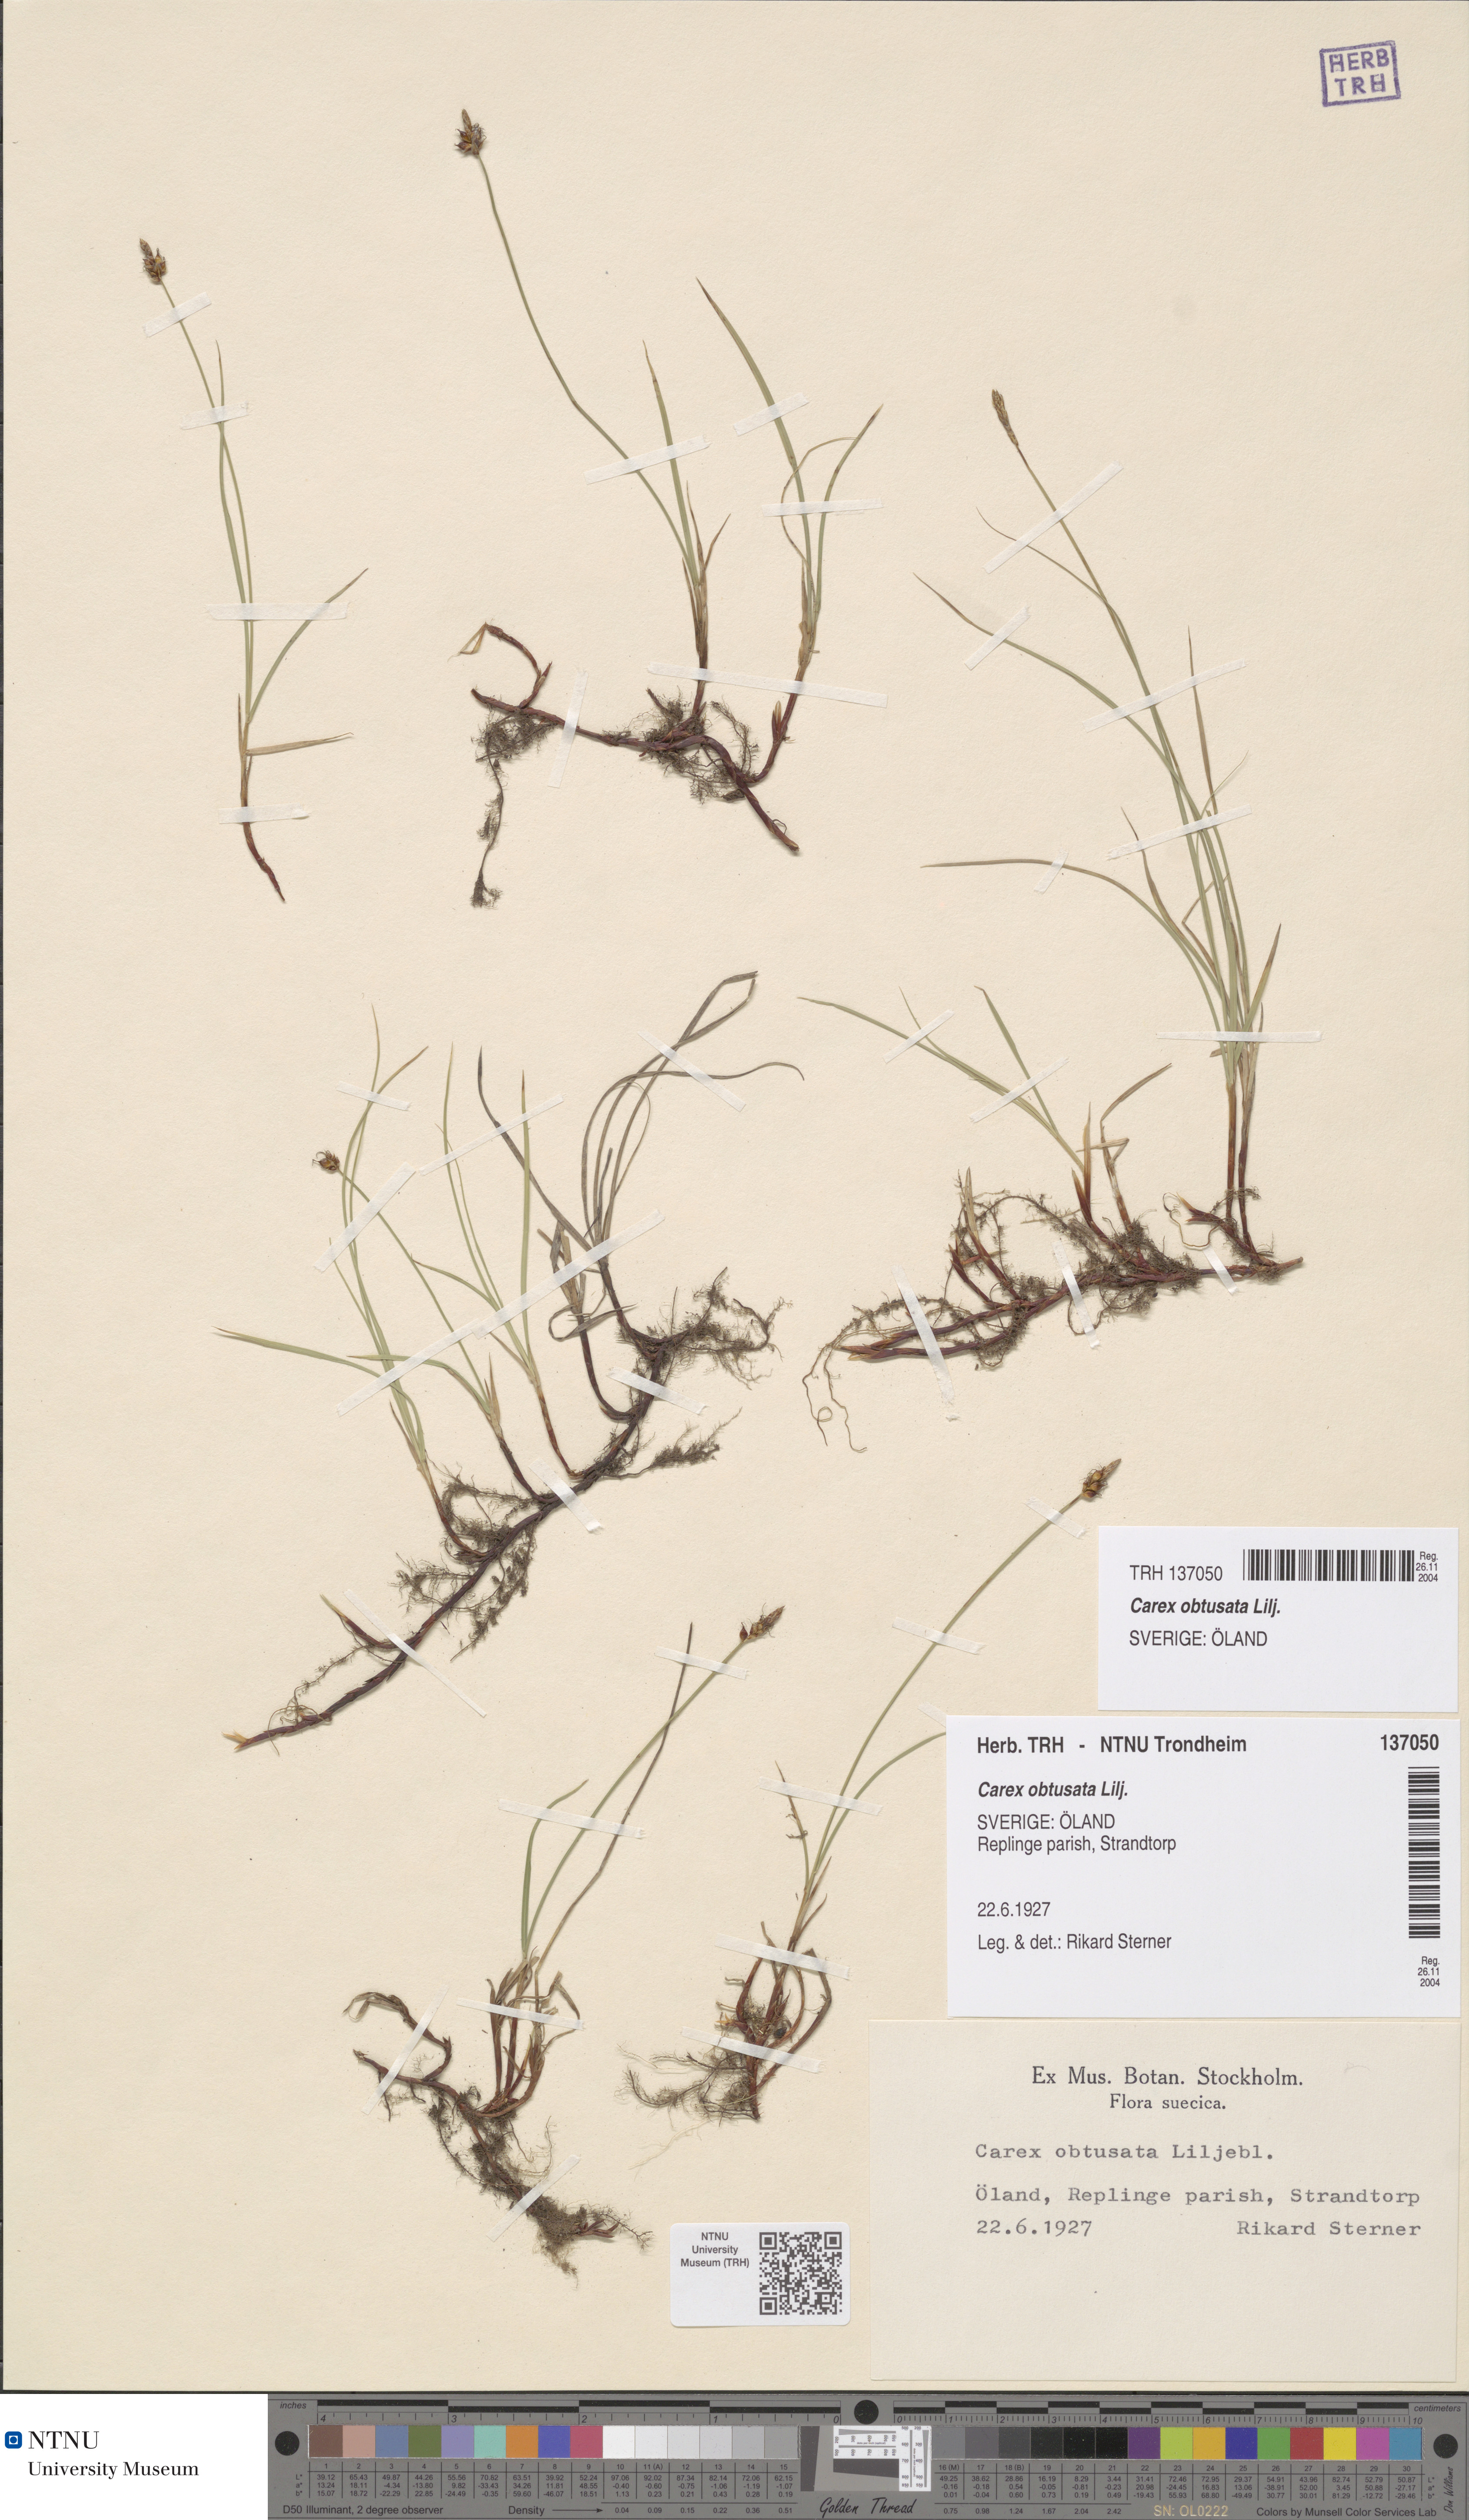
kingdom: Plantae
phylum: Tracheophyta
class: Liliopsida
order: Poales
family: Cyperaceae
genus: Carex
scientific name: Carex obtusata
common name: Blunt sedge
